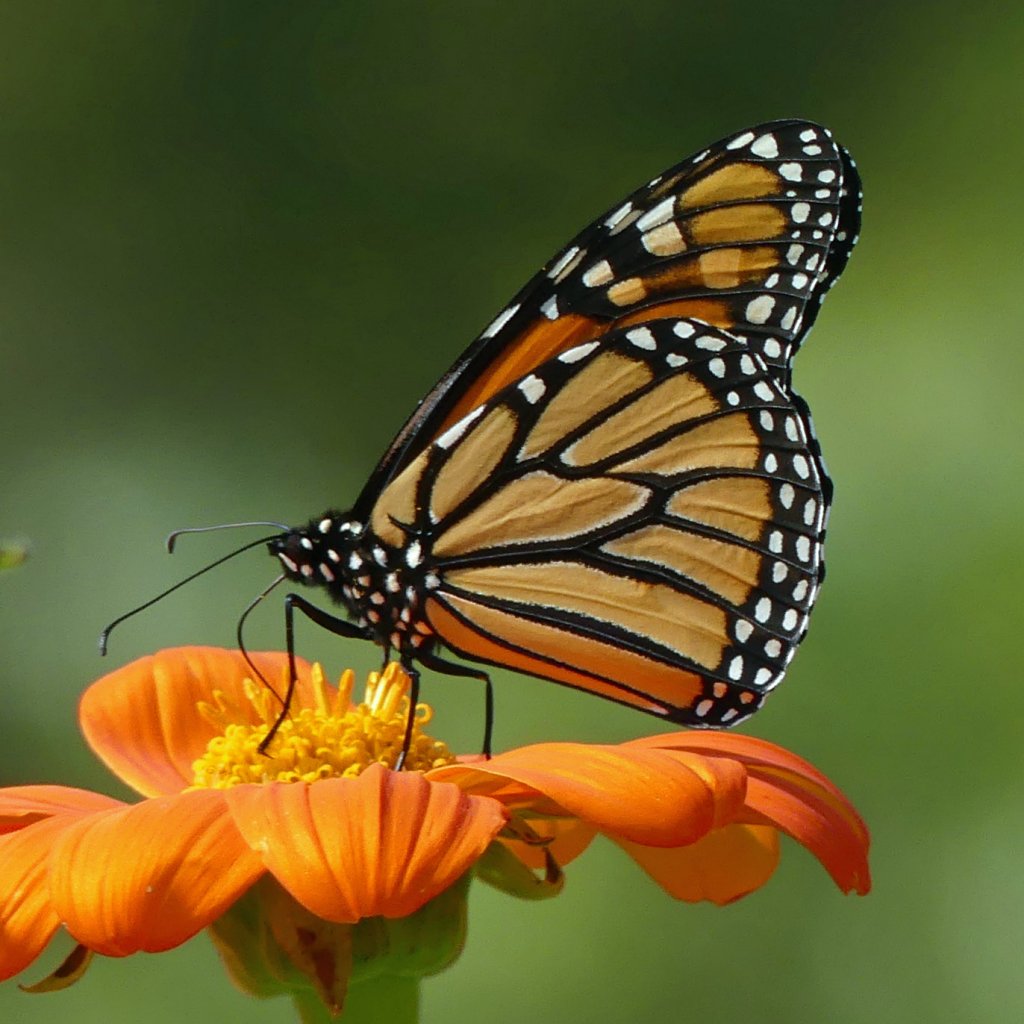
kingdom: Animalia
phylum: Arthropoda
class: Insecta
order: Lepidoptera
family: Nymphalidae
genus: Danaus
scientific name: Danaus plexippus
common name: Monarch
